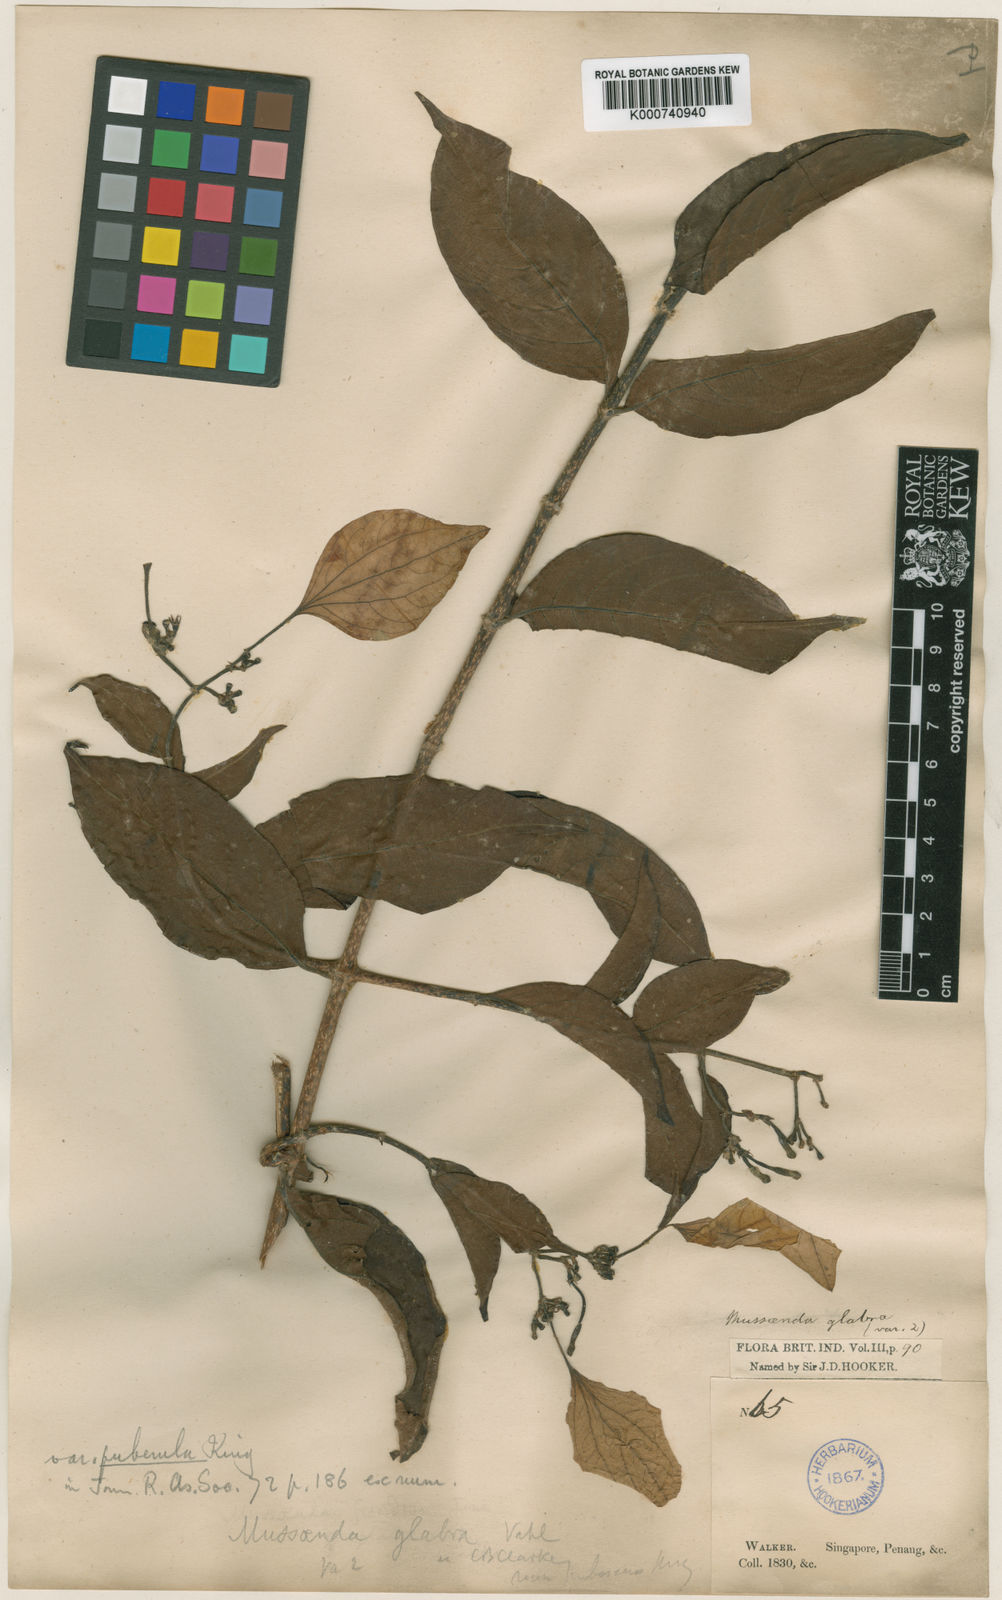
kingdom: Plantae
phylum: Tracheophyta
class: Magnoliopsida
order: Gentianales
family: Rubiaceae
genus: Mussaenda
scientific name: Mussaenda glabra
